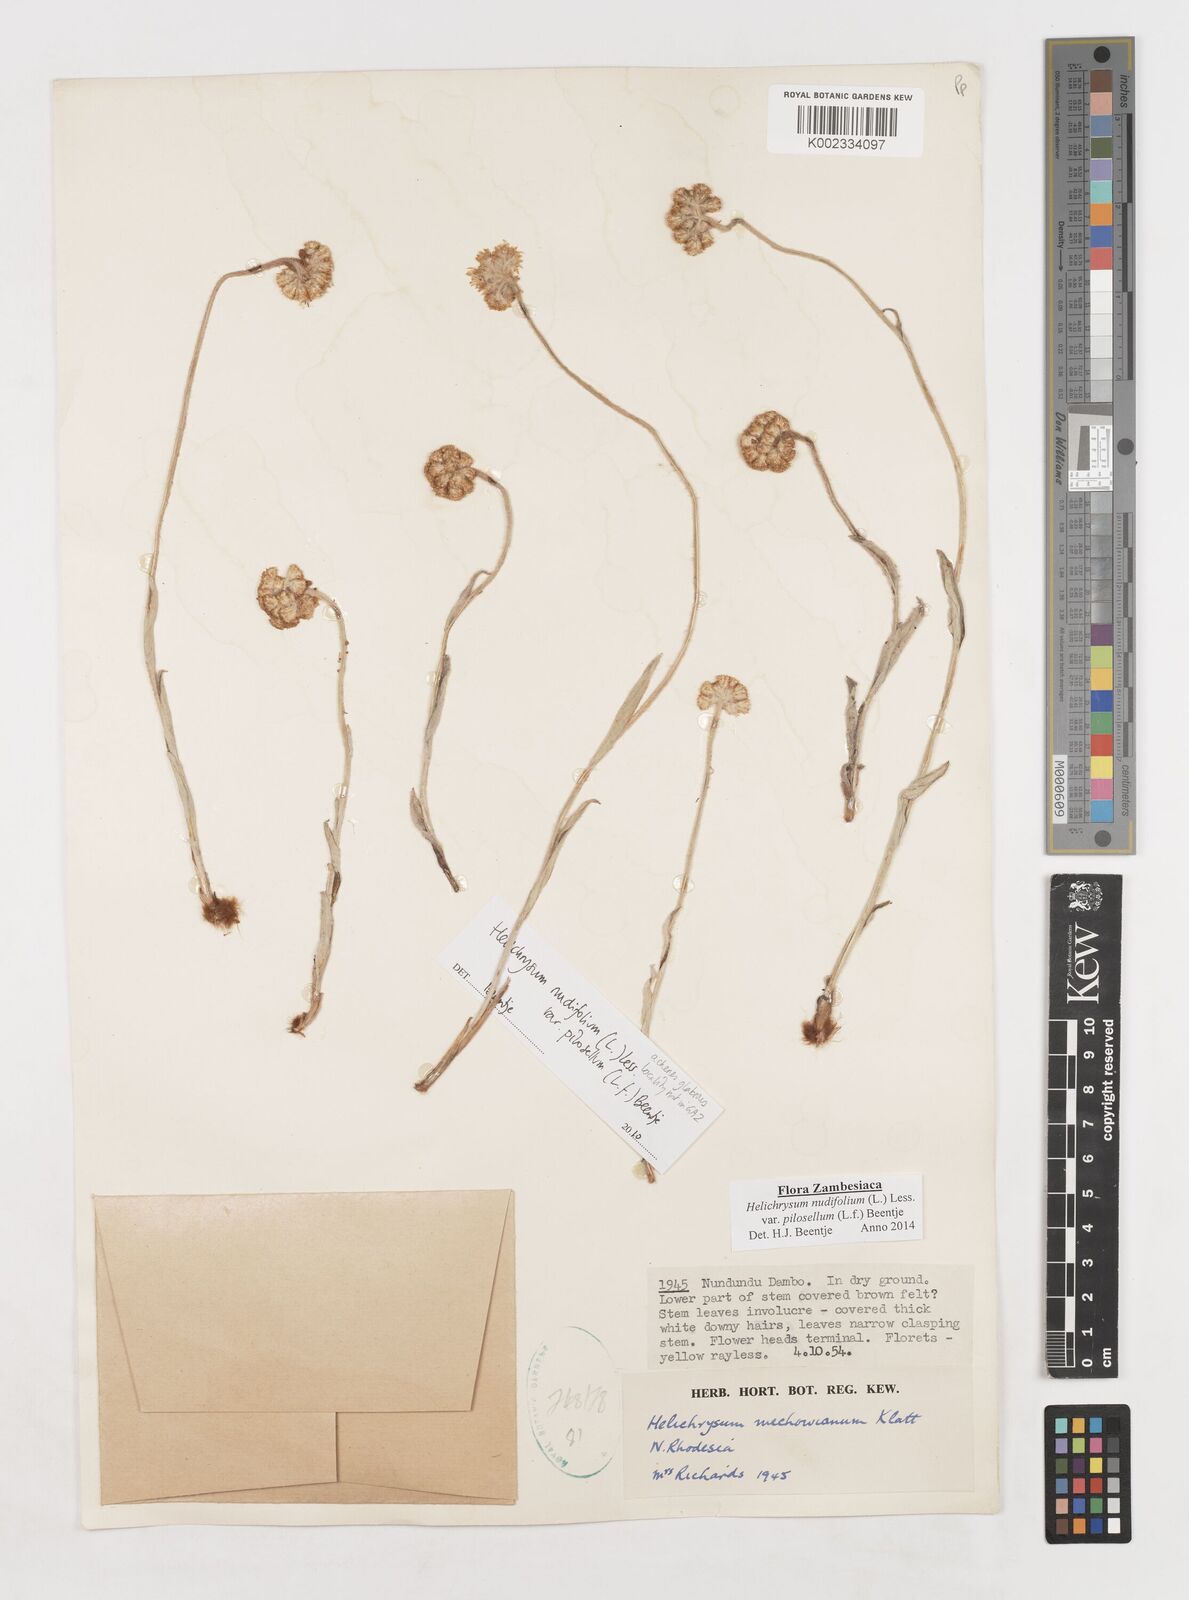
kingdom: Plantae
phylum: Tracheophyta
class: Magnoliopsida
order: Asterales
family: Asteraceae
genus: Helichrysum
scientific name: Helichrysum nudifolium
